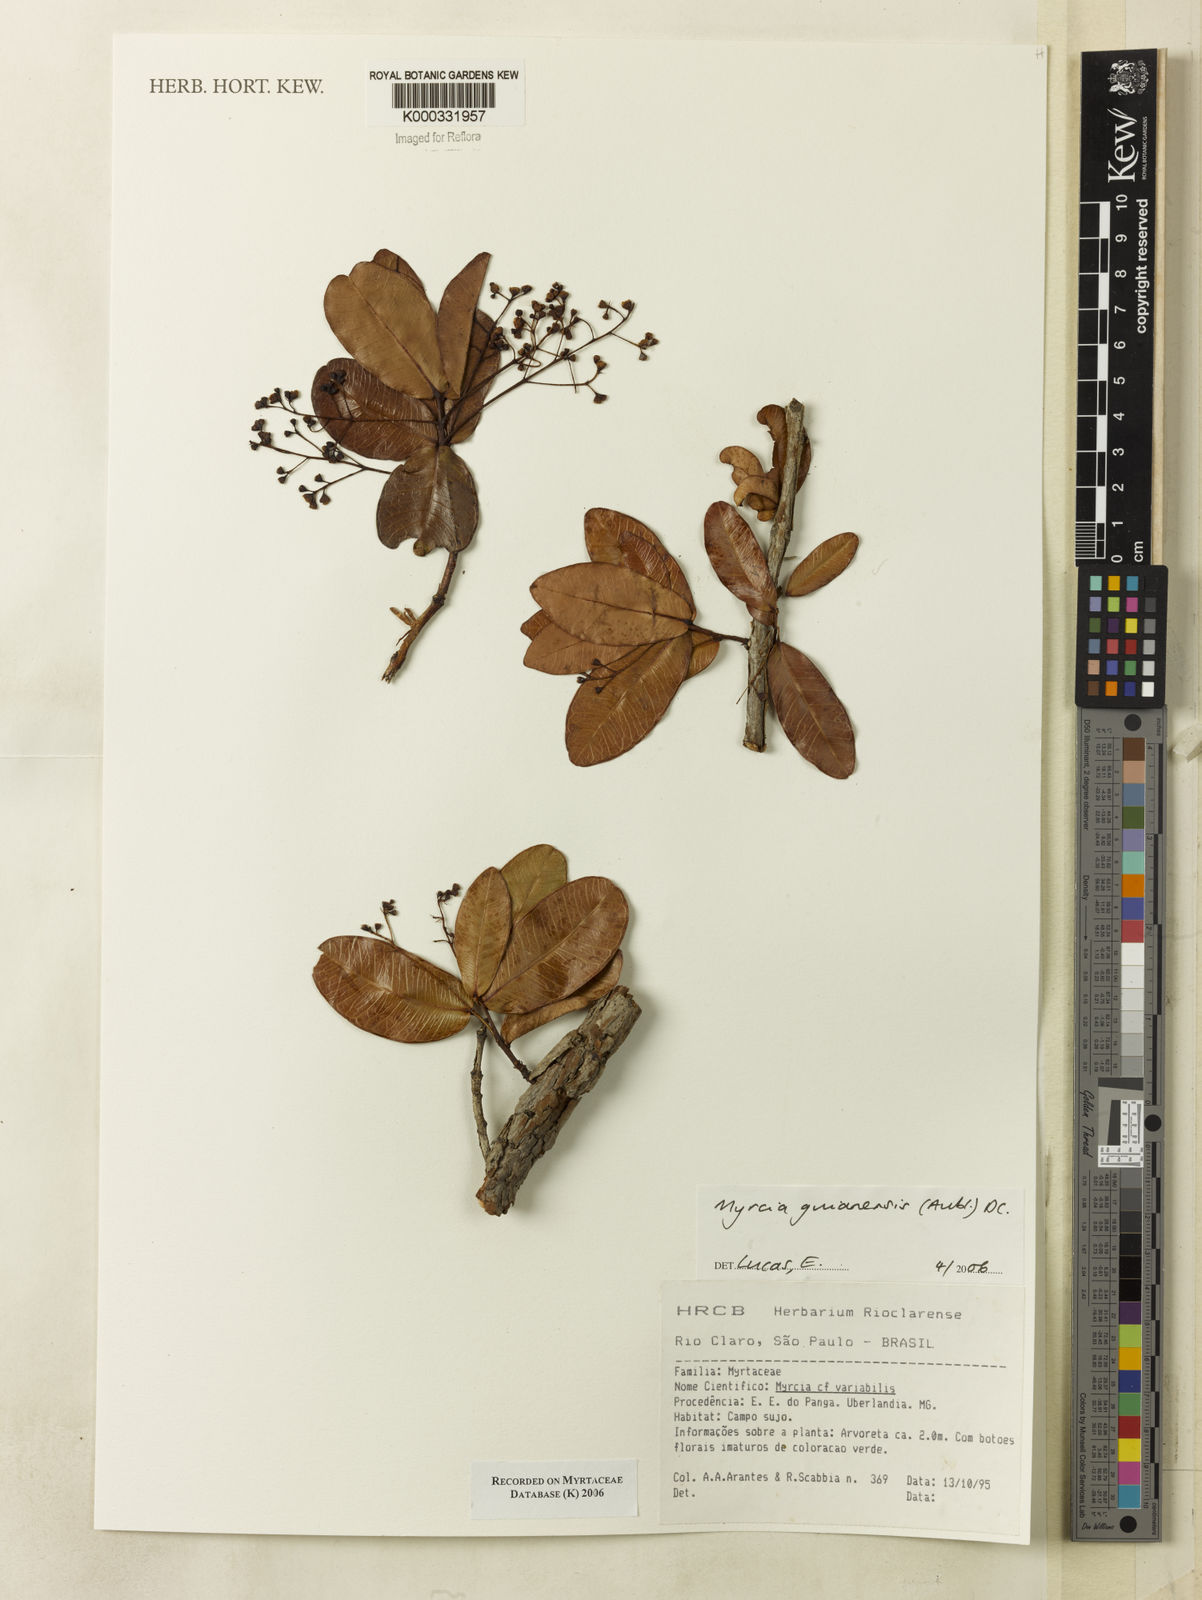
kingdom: Plantae
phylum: Tracheophyta
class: Magnoliopsida
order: Myrtales
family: Myrtaceae
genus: Myrcia
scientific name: Myrcia guianensis
